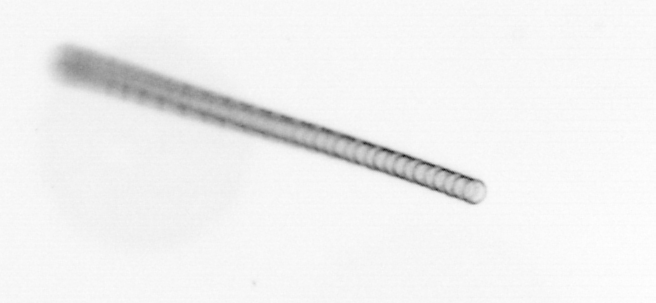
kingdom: Chromista
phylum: Ochrophyta
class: Bacillariophyceae
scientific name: Bacillariophyceae
